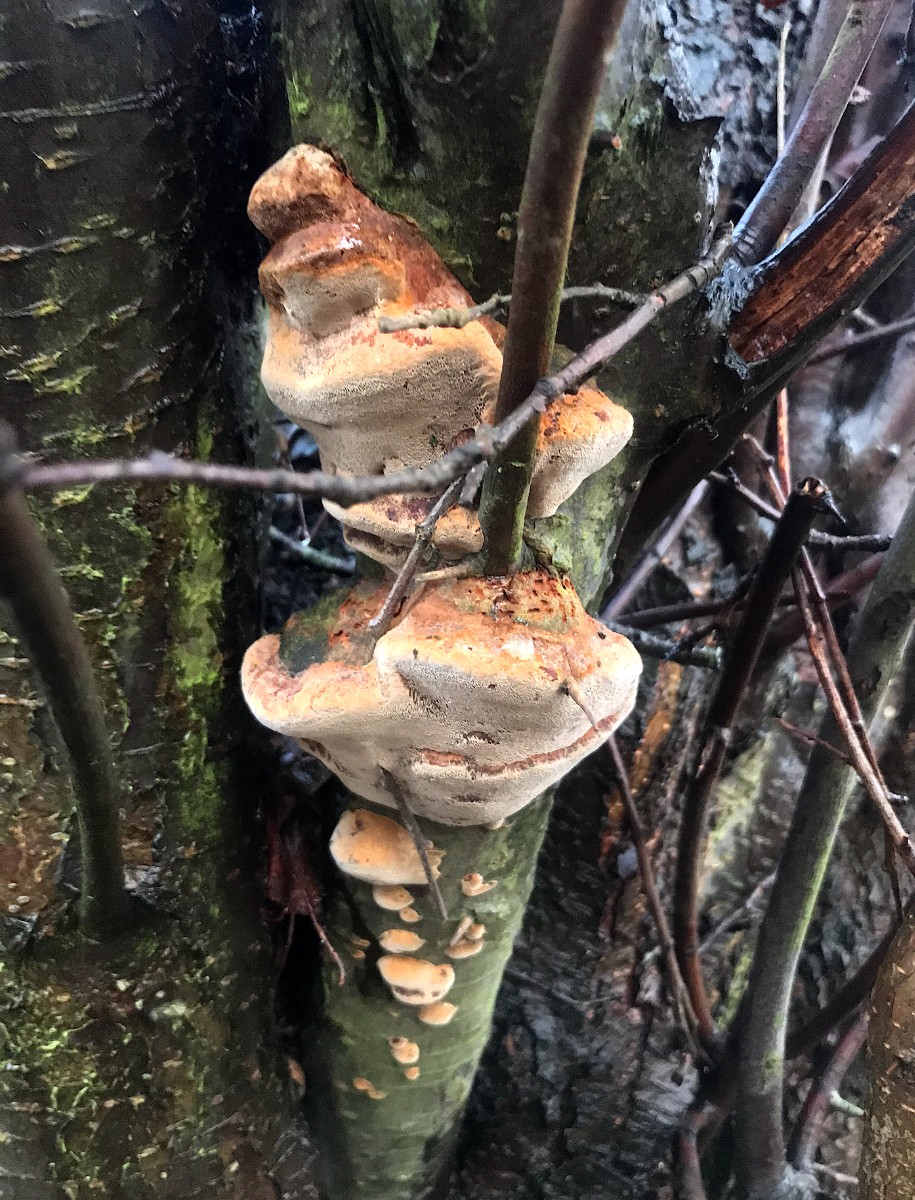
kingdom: Fungi
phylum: Basidiomycota
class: Agaricomycetes
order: Hymenochaetales
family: Hymenochaetaceae
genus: Phellinus
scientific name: Phellinus pomaceus
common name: blomme-ildporesvamp
